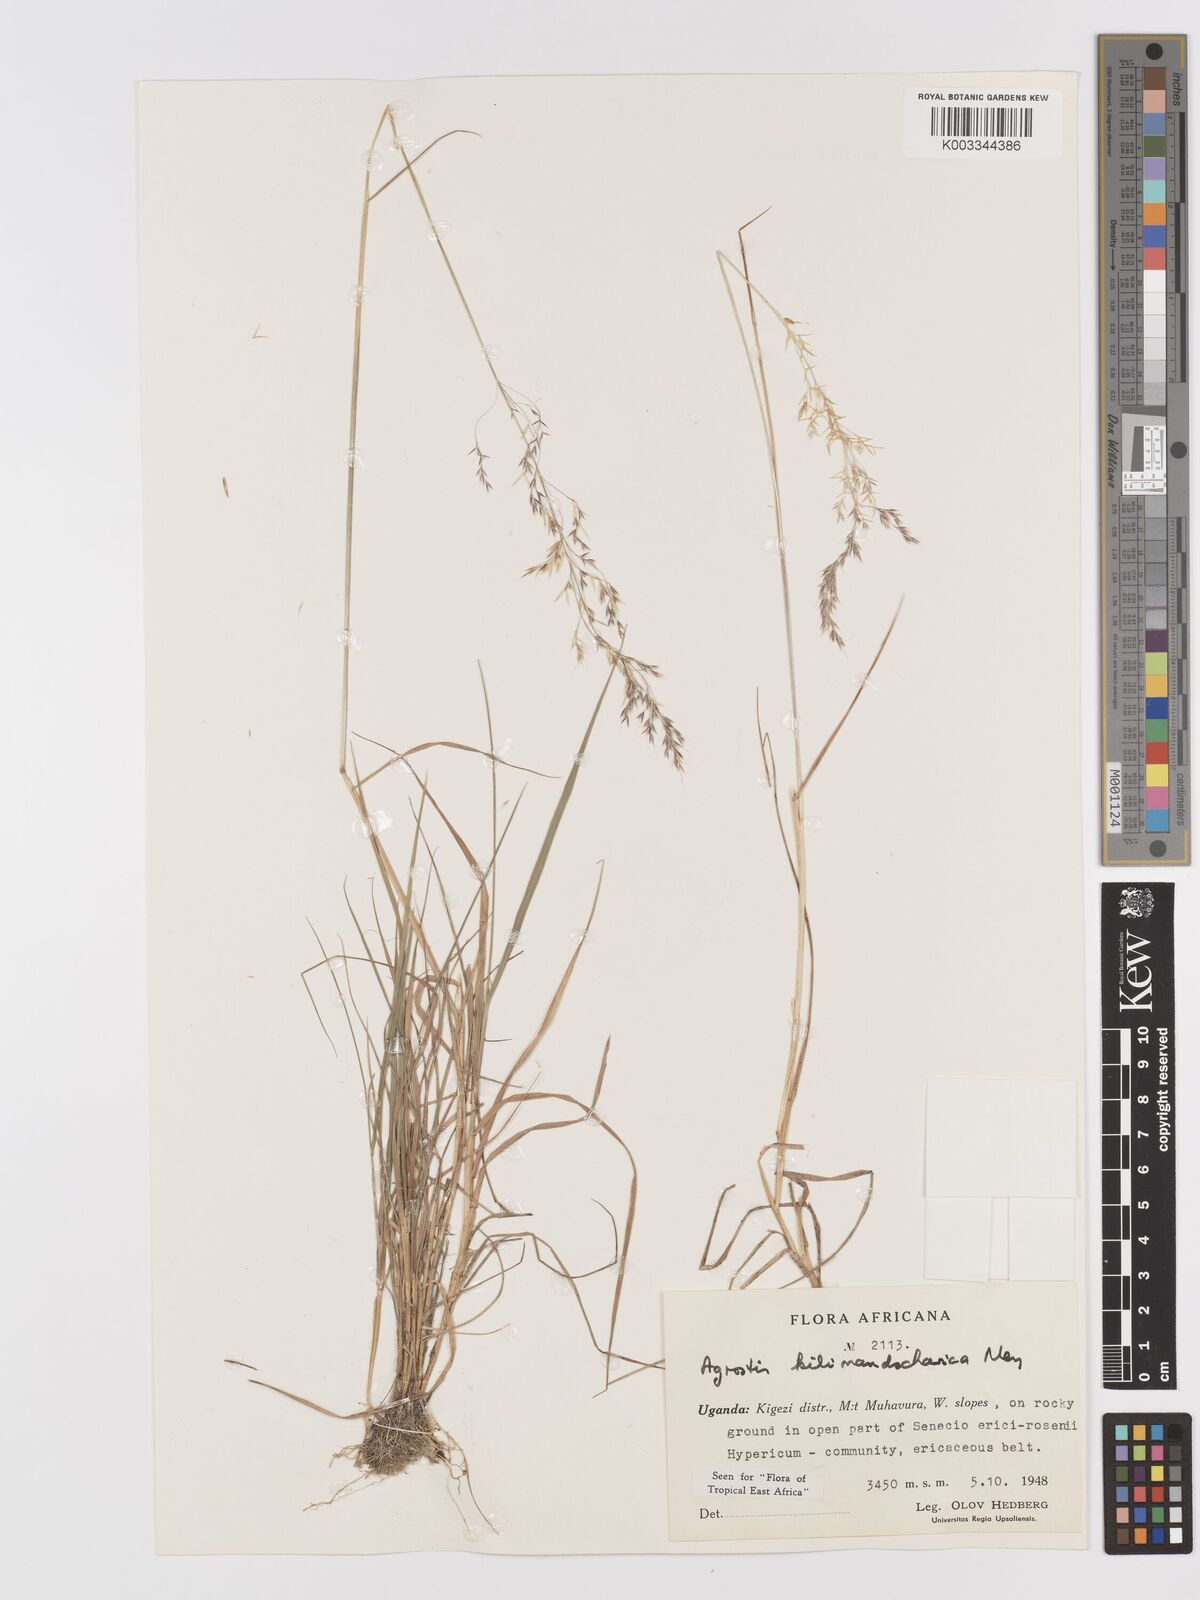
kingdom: Plantae
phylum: Tracheophyta
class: Liliopsida
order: Poales
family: Poaceae
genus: Agrostis
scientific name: Agrostis kilimandscharica
